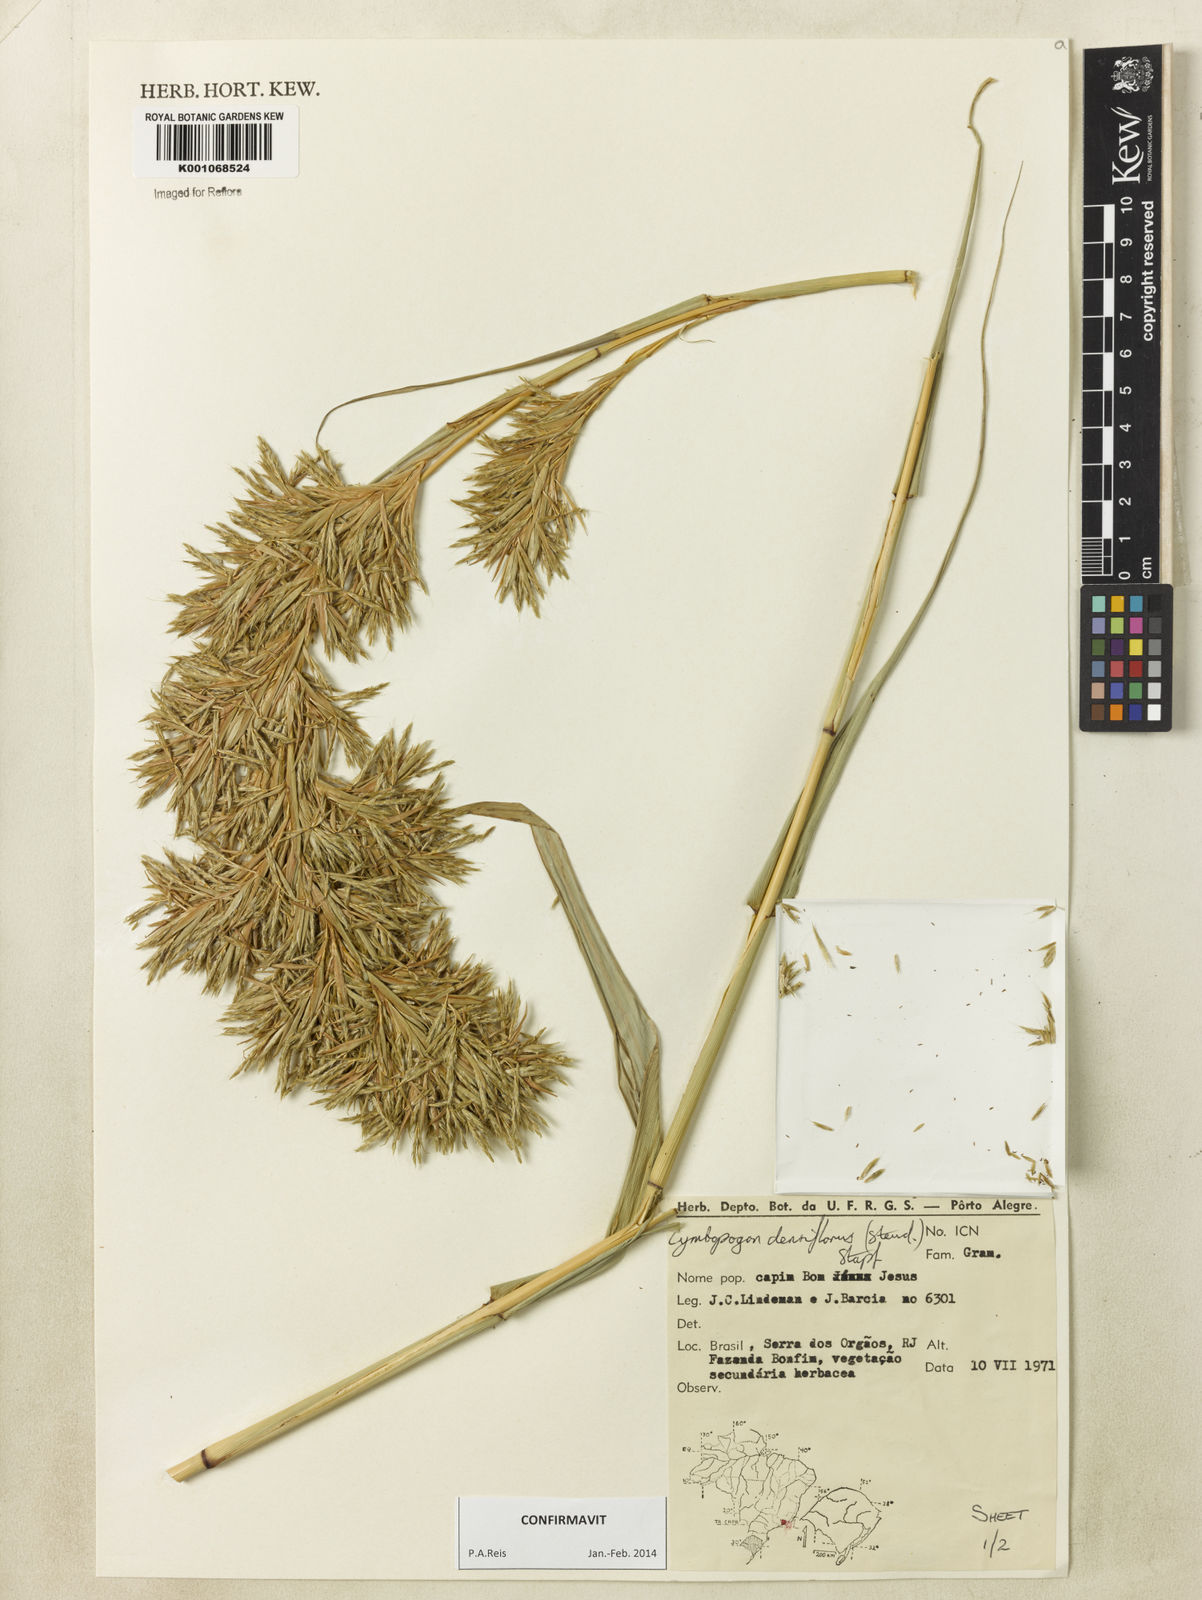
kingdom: Plantae
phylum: Tracheophyta
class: Liliopsida
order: Poales
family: Poaceae
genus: Cymbopogon
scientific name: Cymbopogon densiflorus
